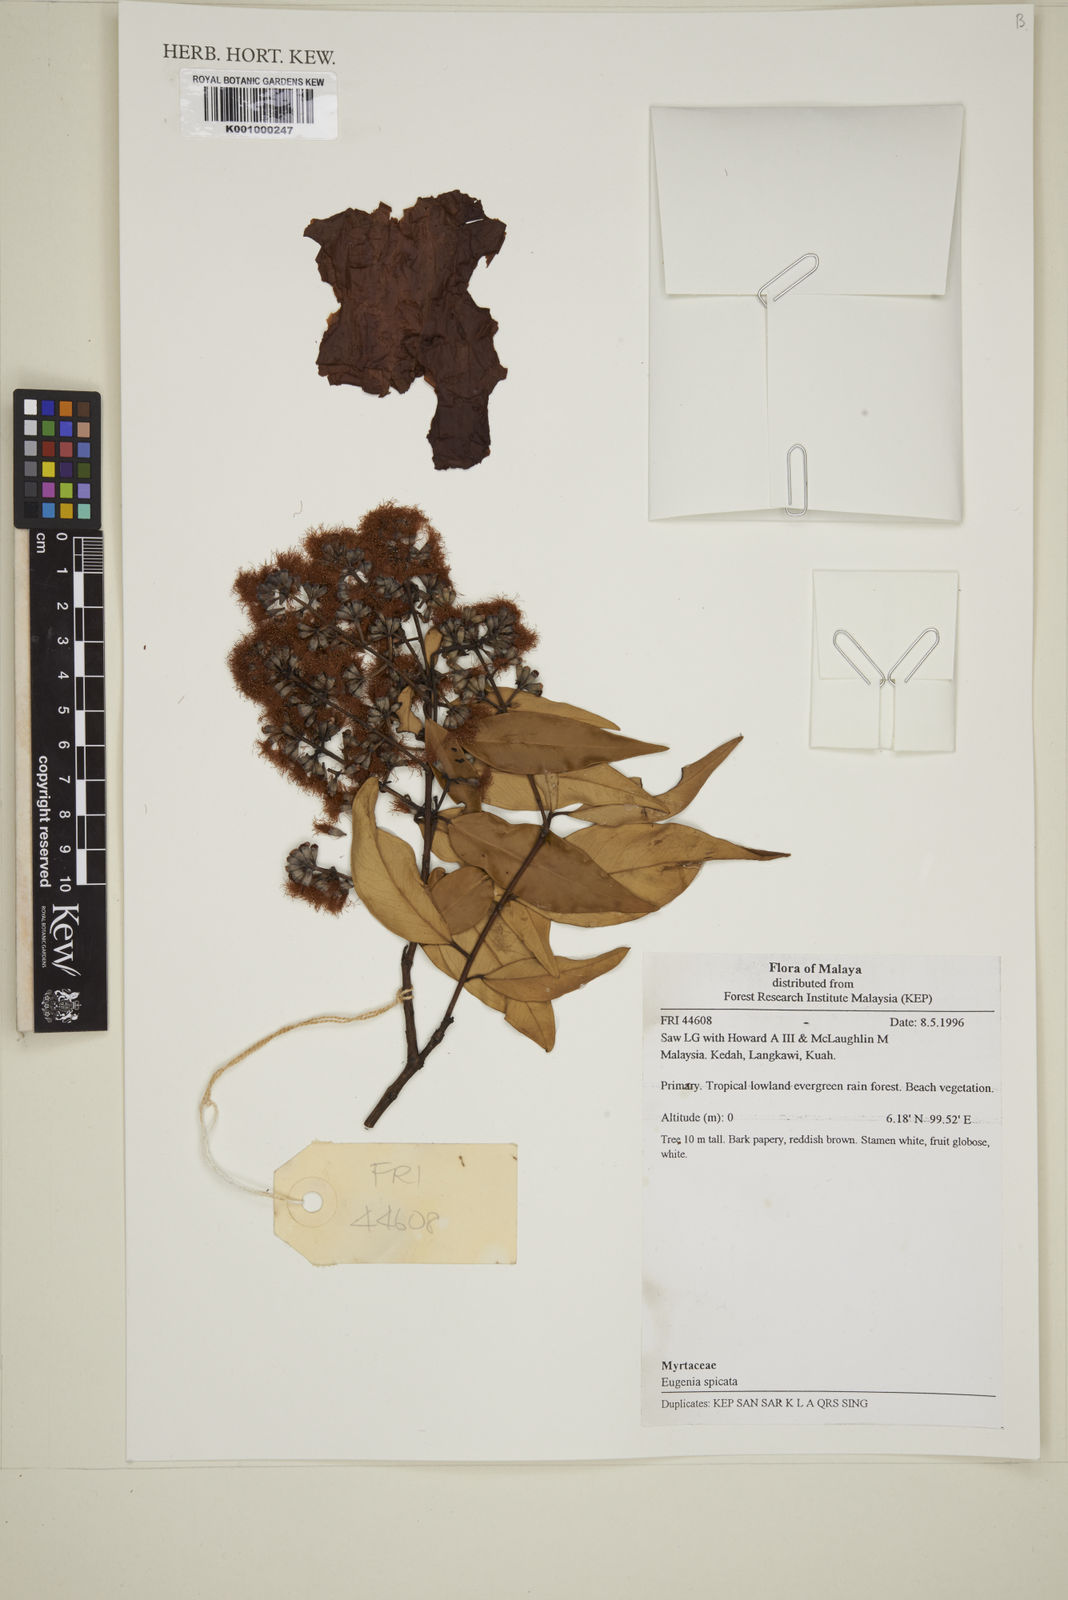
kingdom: Plantae
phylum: Tracheophyta
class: Magnoliopsida
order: Myrtales
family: Myrtaceae
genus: Syzygium
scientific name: Syzygium zeylanicum
